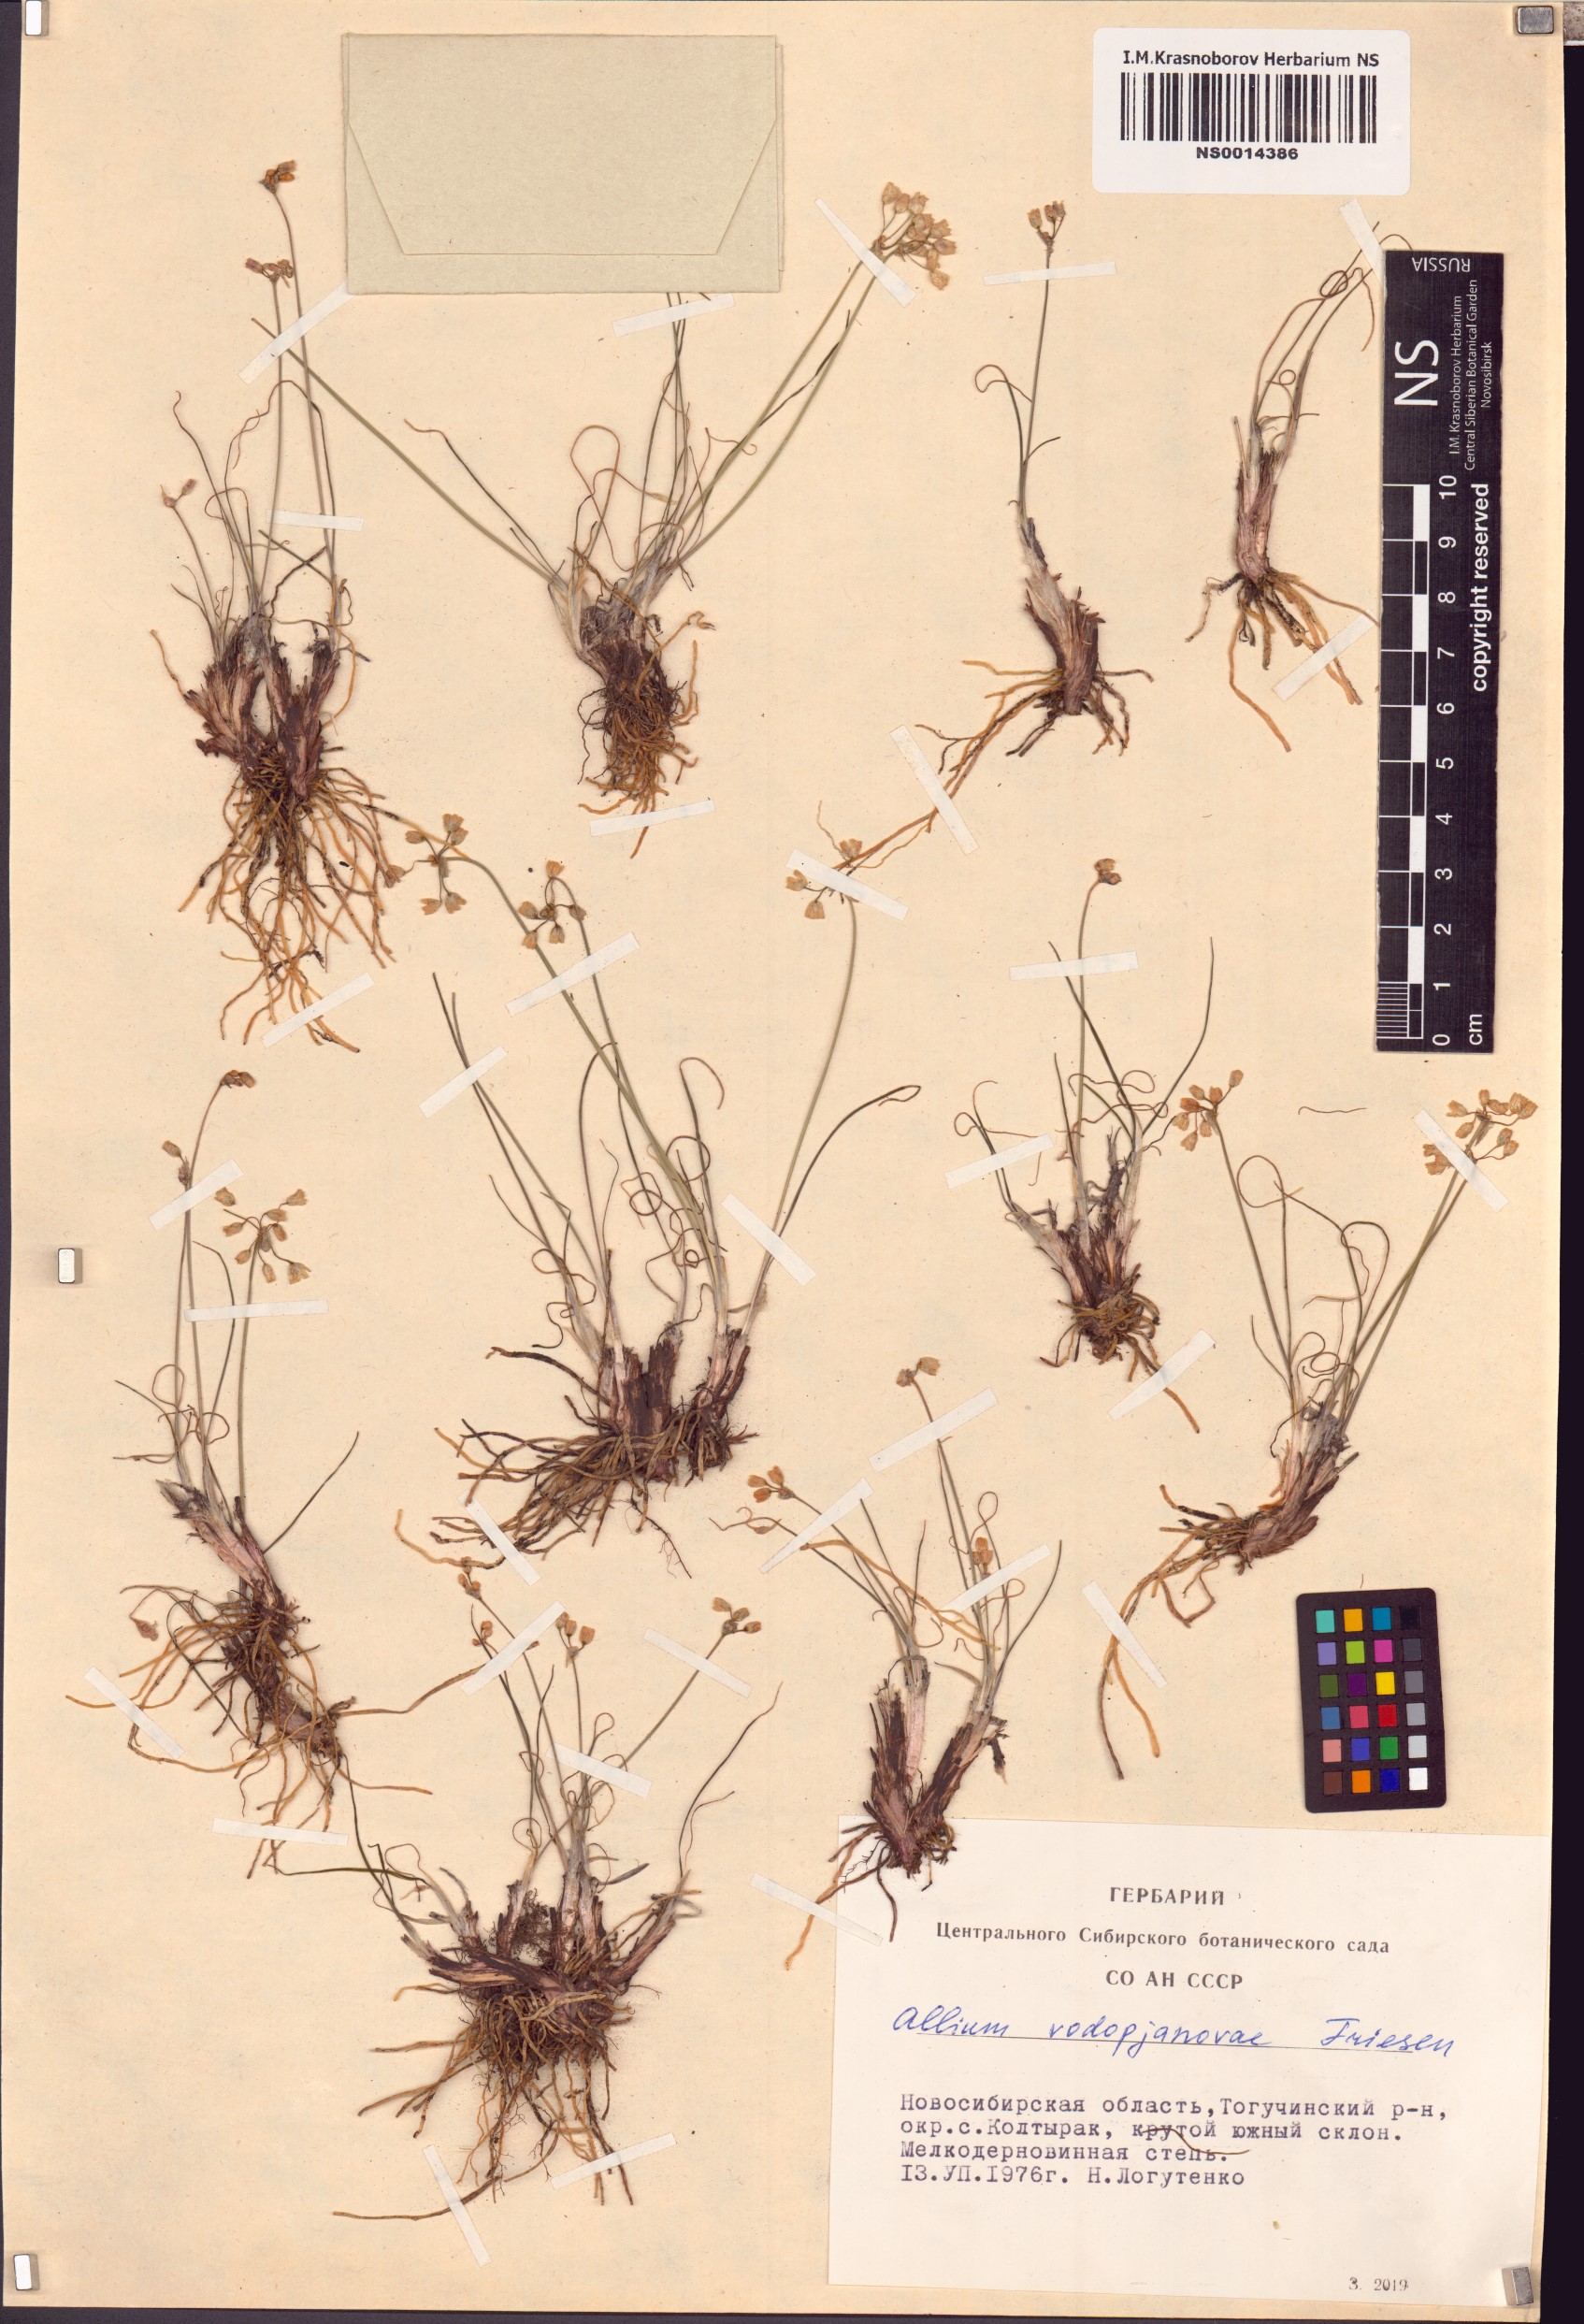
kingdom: Plantae
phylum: Tracheophyta
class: Liliopsida
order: Asparagales
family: Amaryllidaceae
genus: Allium
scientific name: Allium vodopjanovae
